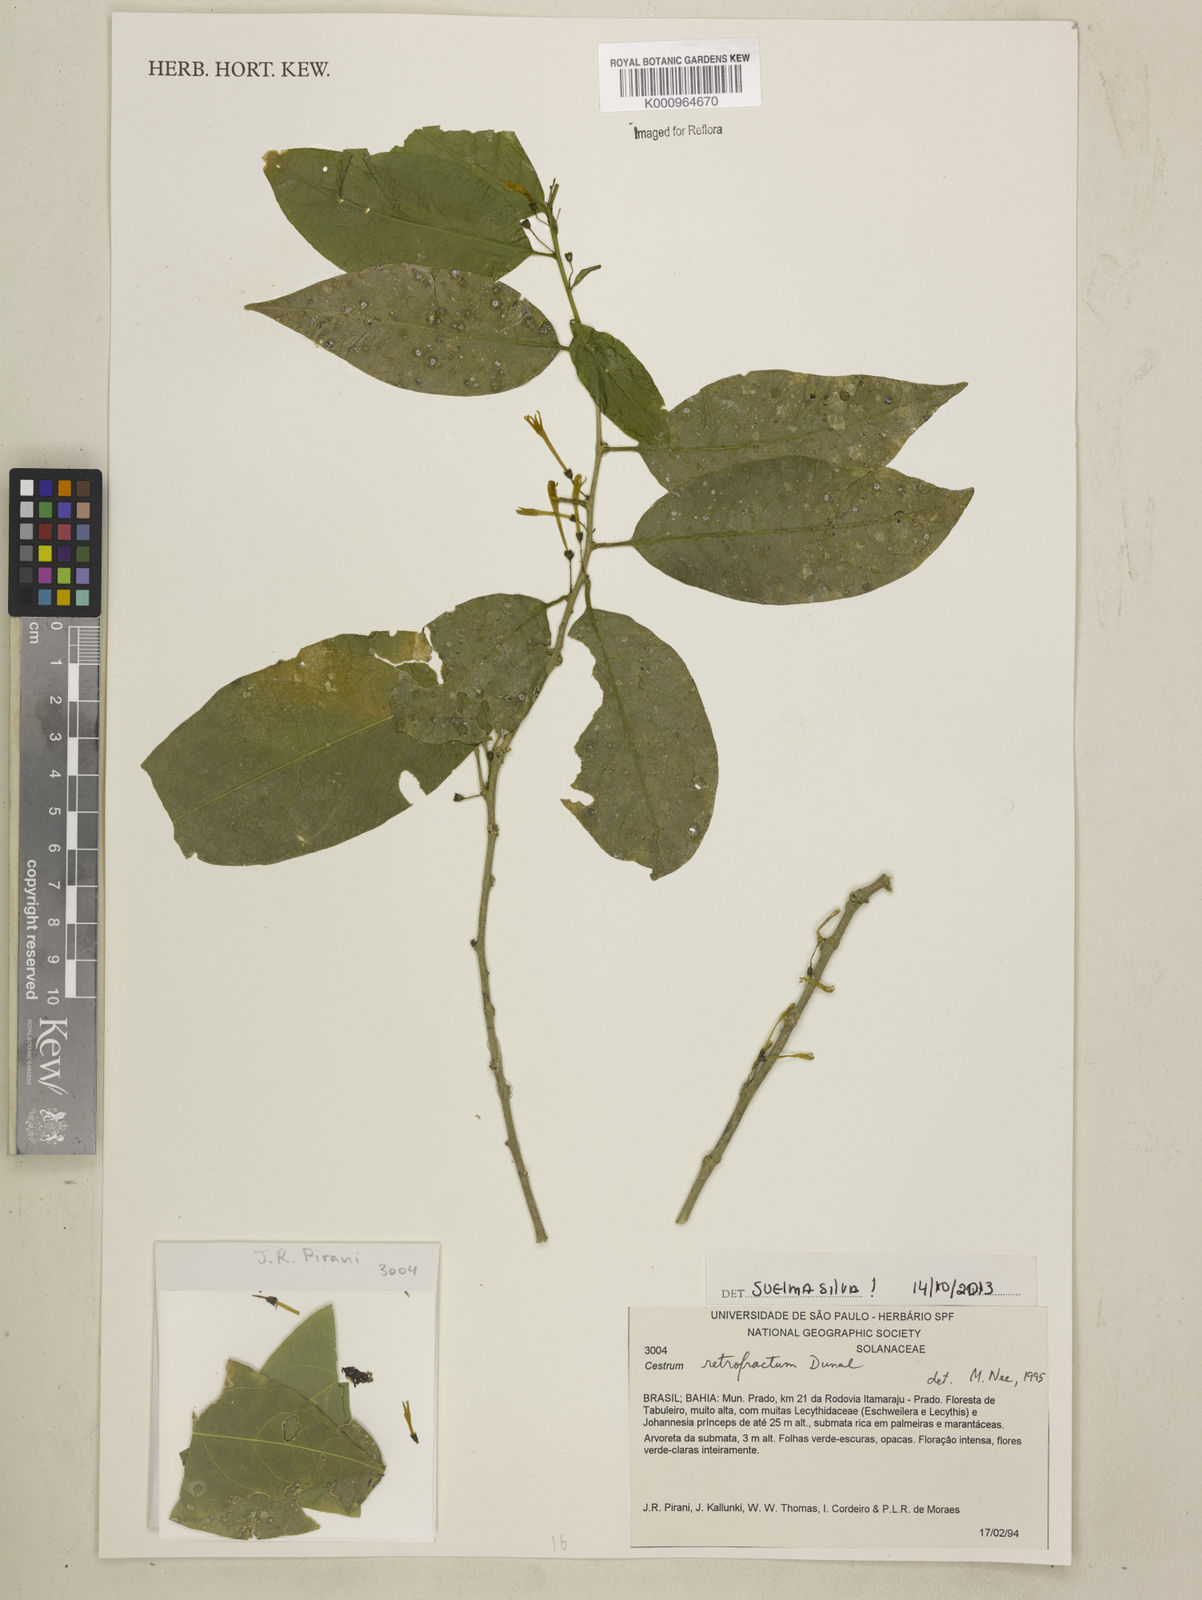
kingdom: Plantae
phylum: Tracheophyta
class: Magnoliopsida
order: Solanales
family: Solanaceae
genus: Cestrum
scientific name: Cestrum retrofractum
